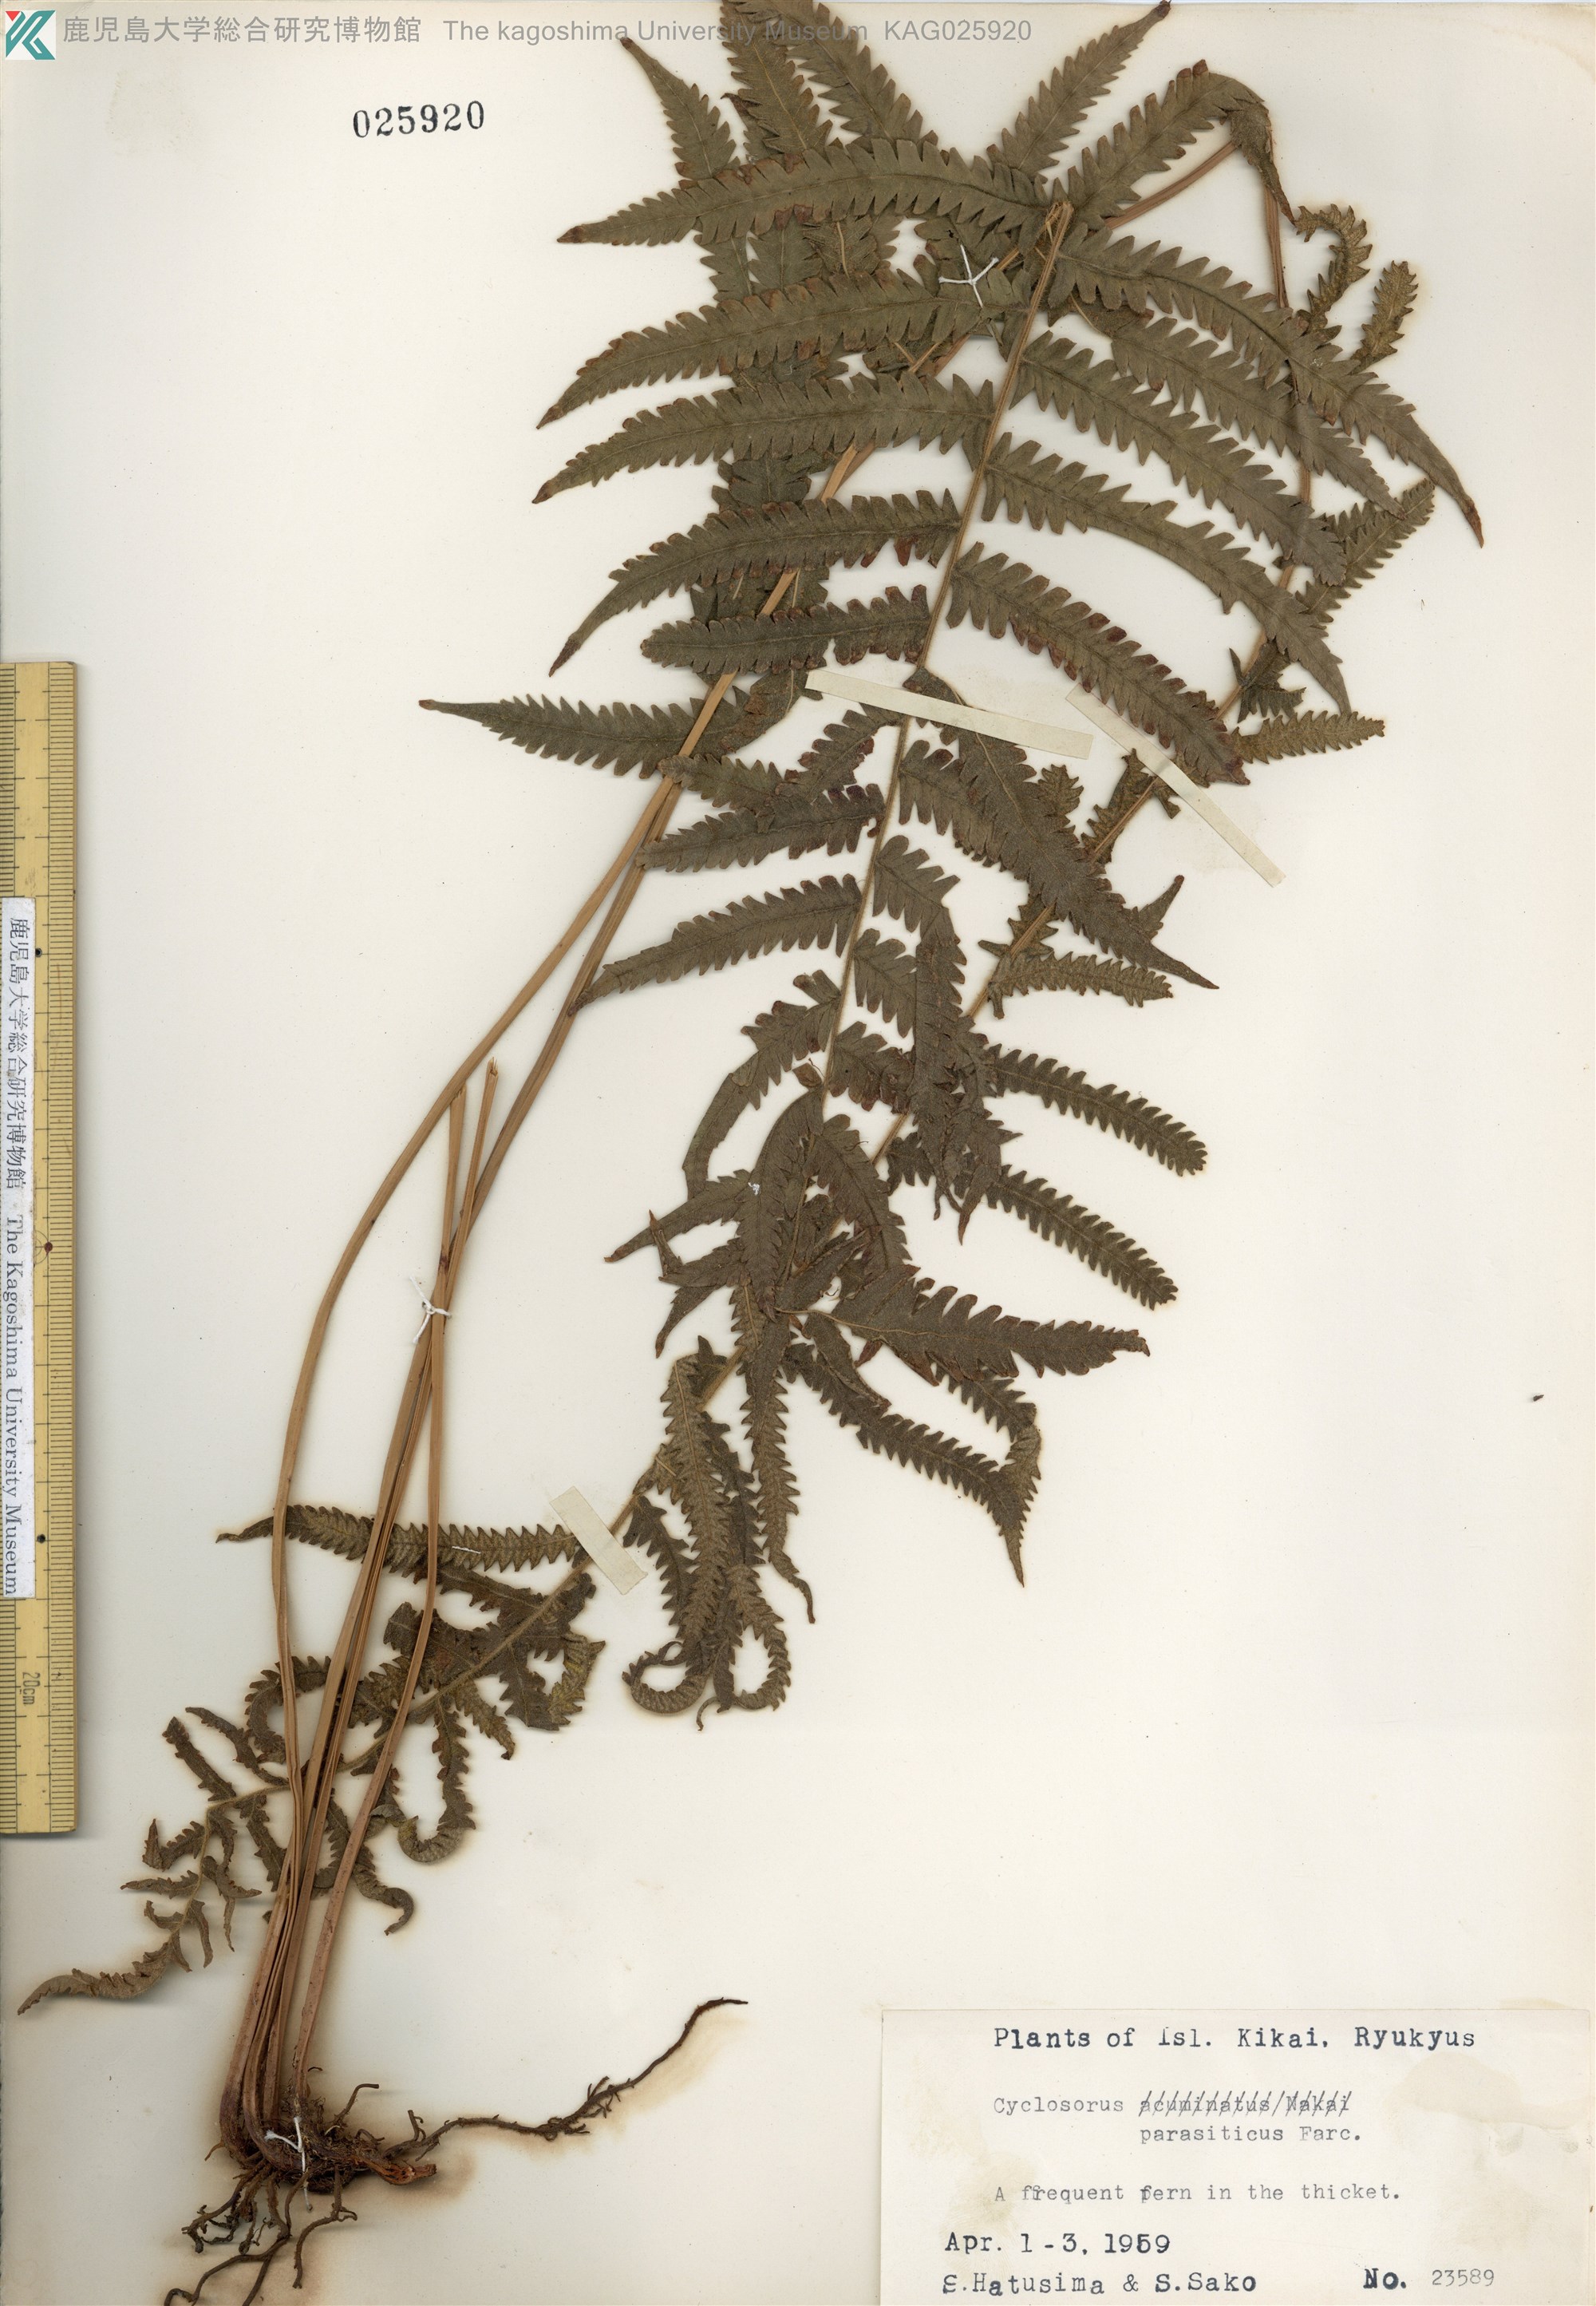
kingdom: Plantae
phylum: Tracheophyta
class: Polypodiopsida
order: Polypodiales
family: Thelypteridaceae
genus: Christella
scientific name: Christella parasitica
